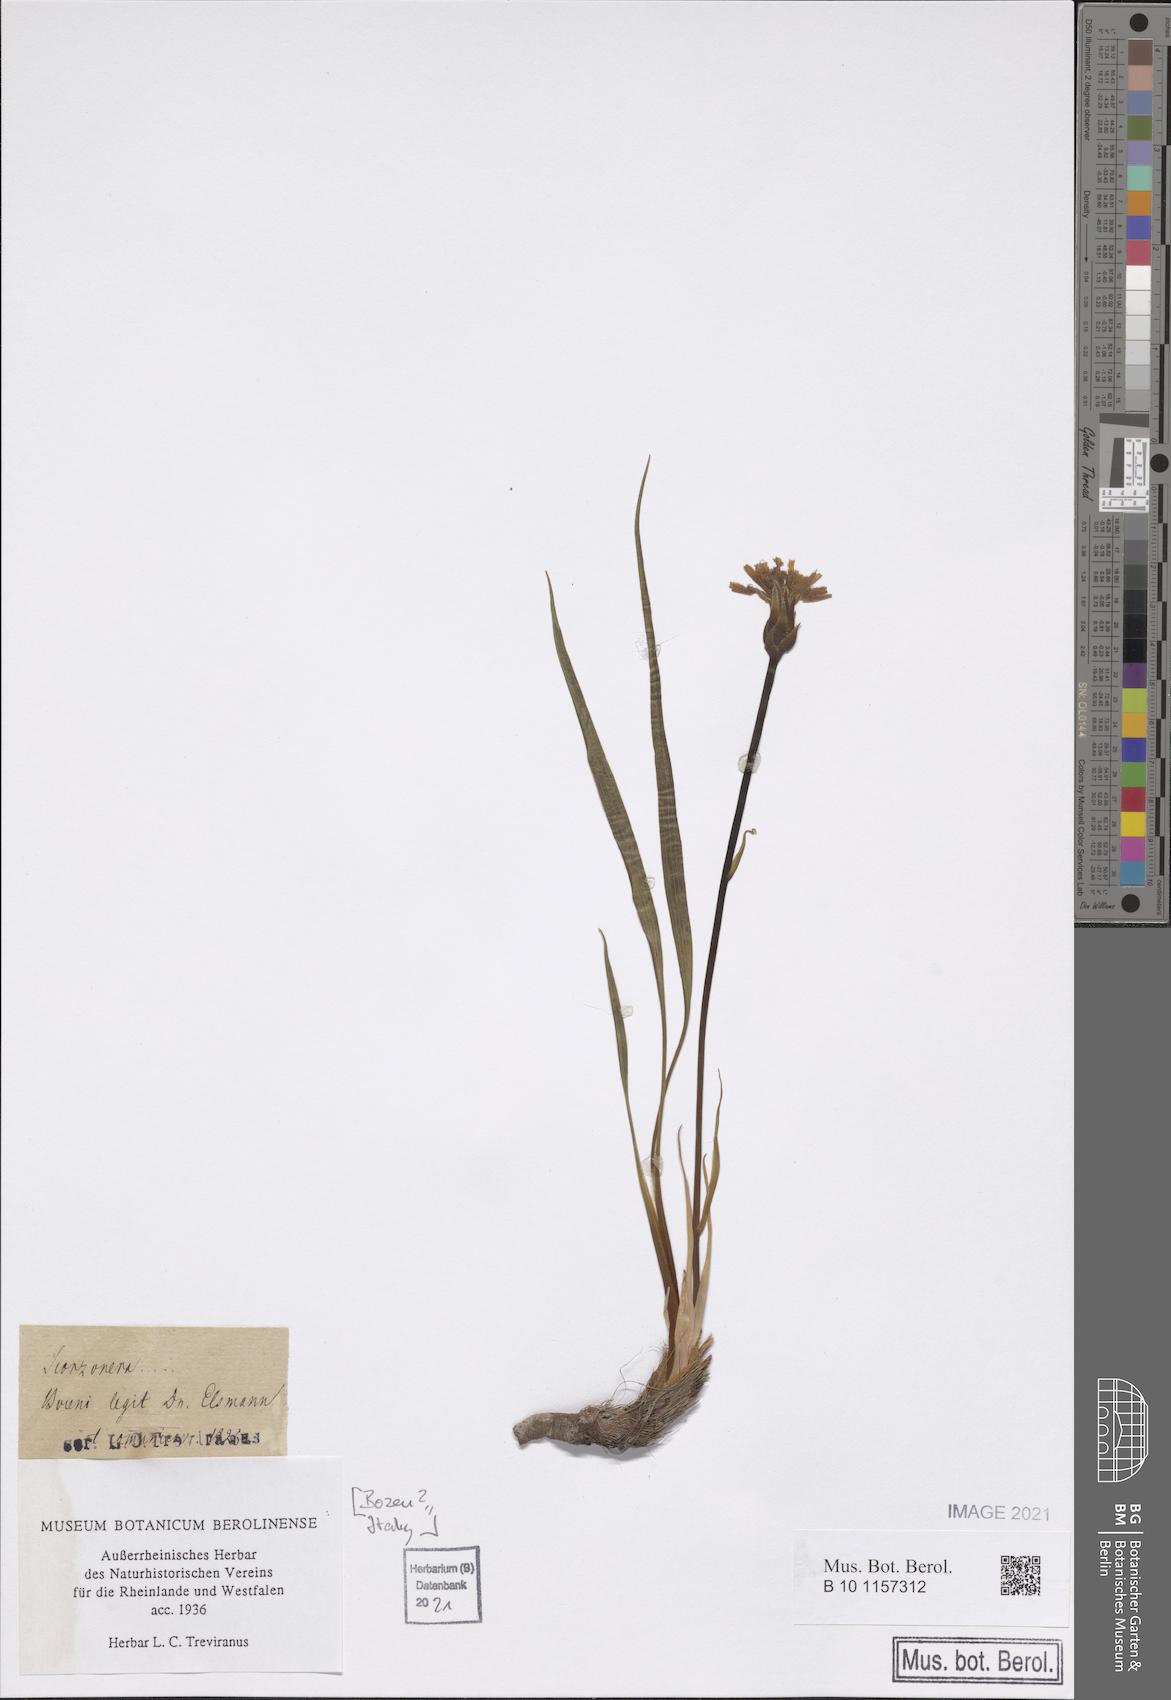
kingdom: Plantae
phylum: Tracheophyta
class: Magnoliopsida
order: Asterales
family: Asteraceae
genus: Scorzonera
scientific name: Scorzonera
